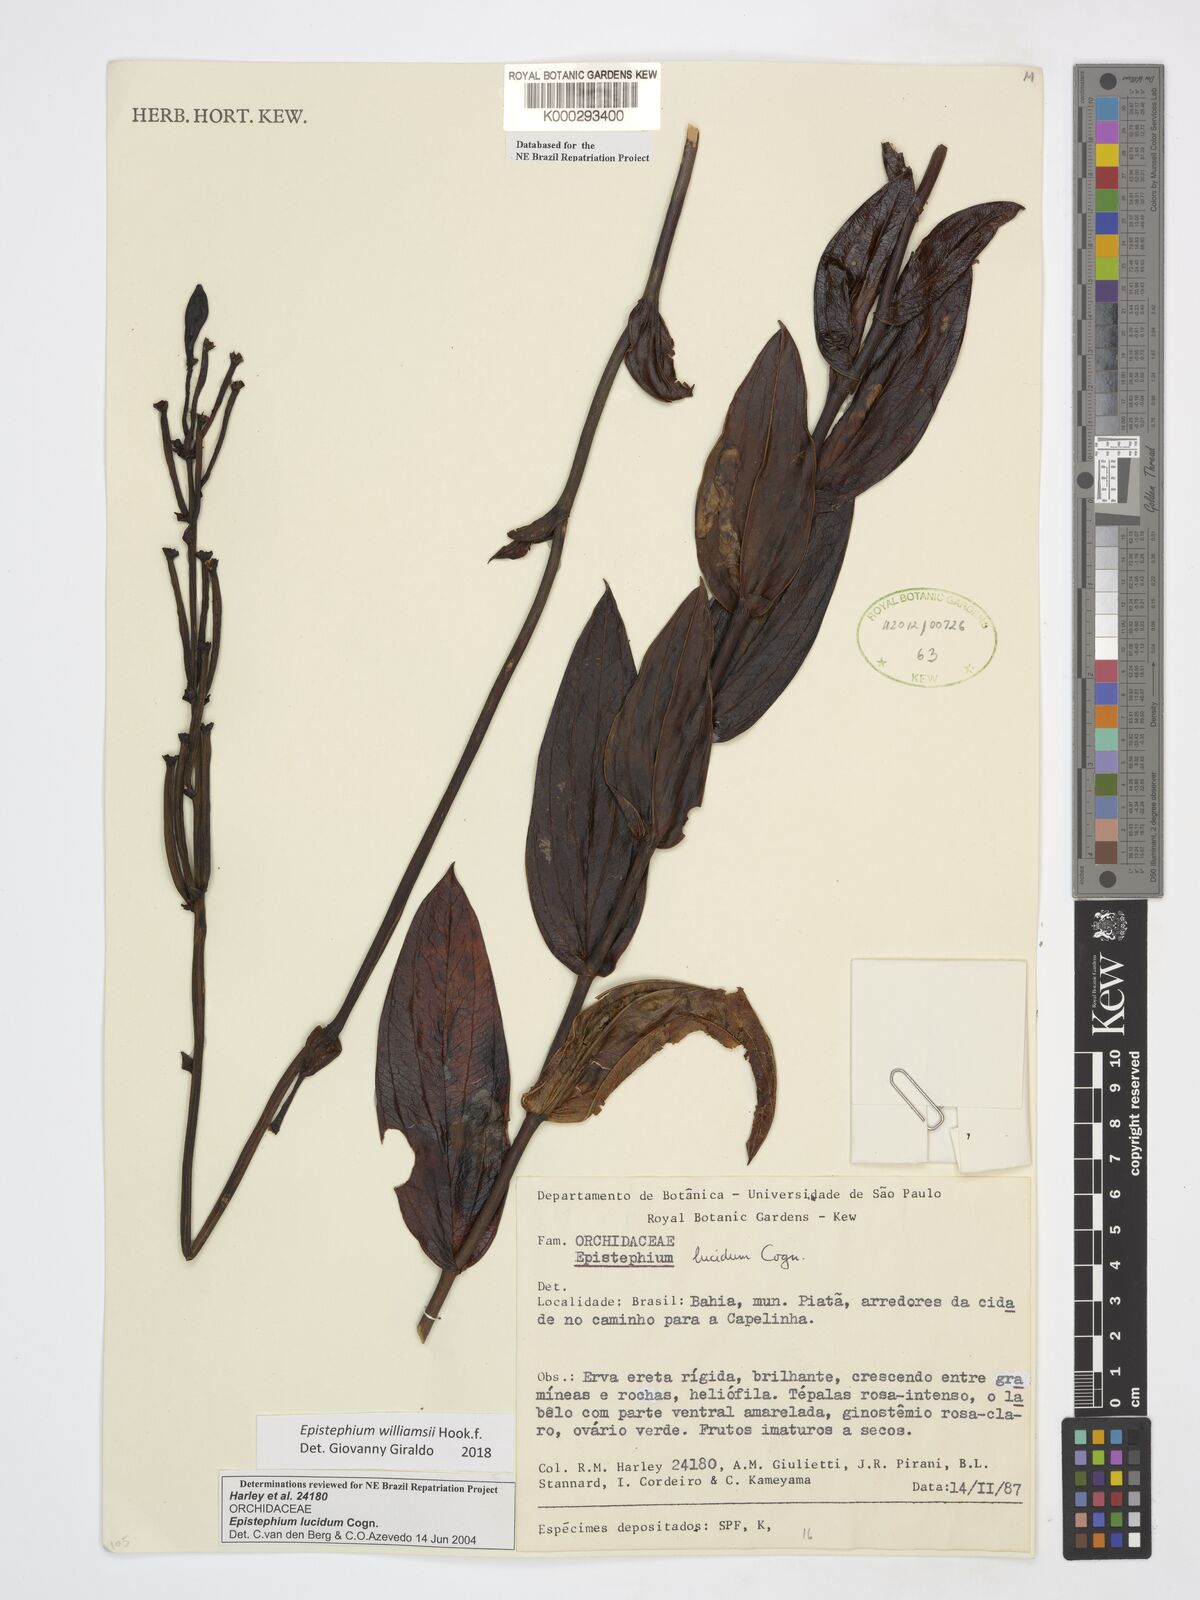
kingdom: Plantae
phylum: Tracheophyta
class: Liliopsida
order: Asparagales
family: Orchidaceae
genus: Epistephium
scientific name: Epistephium williamsii
